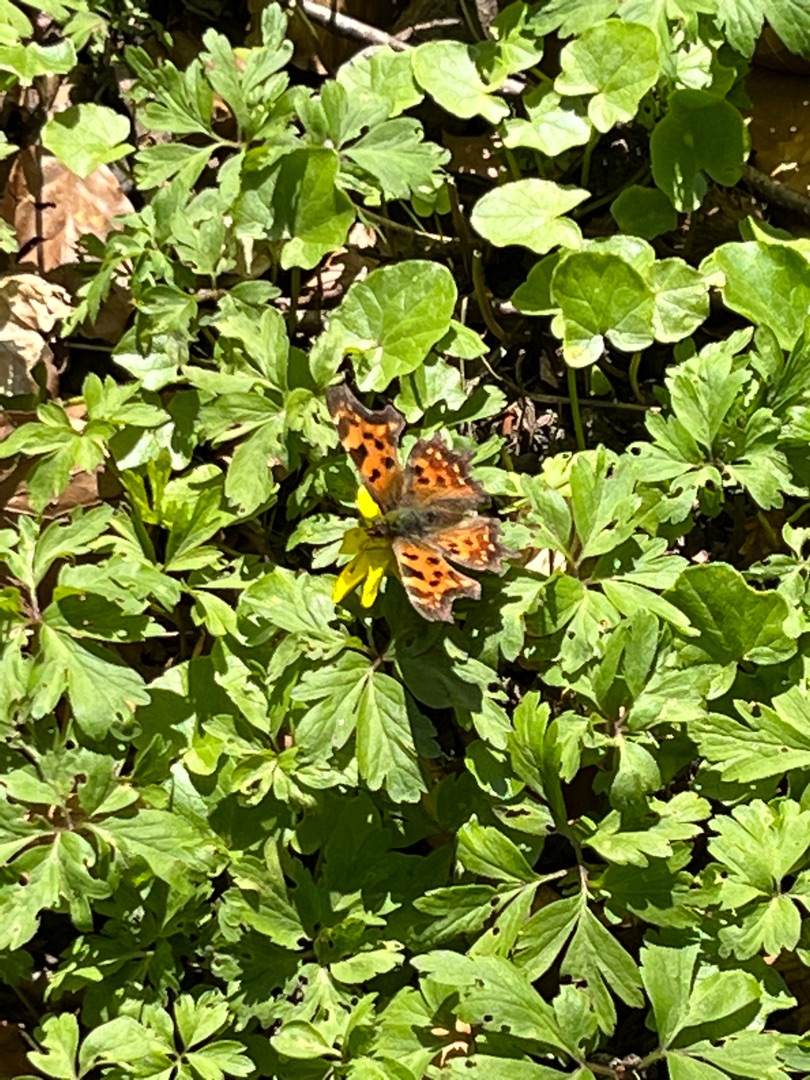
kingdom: Animalia
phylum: Arthropoda
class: Insecta
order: Lepidoptera
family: Nymphalidae
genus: Polygonia
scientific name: Polygonia c-album
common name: Det hvide C
